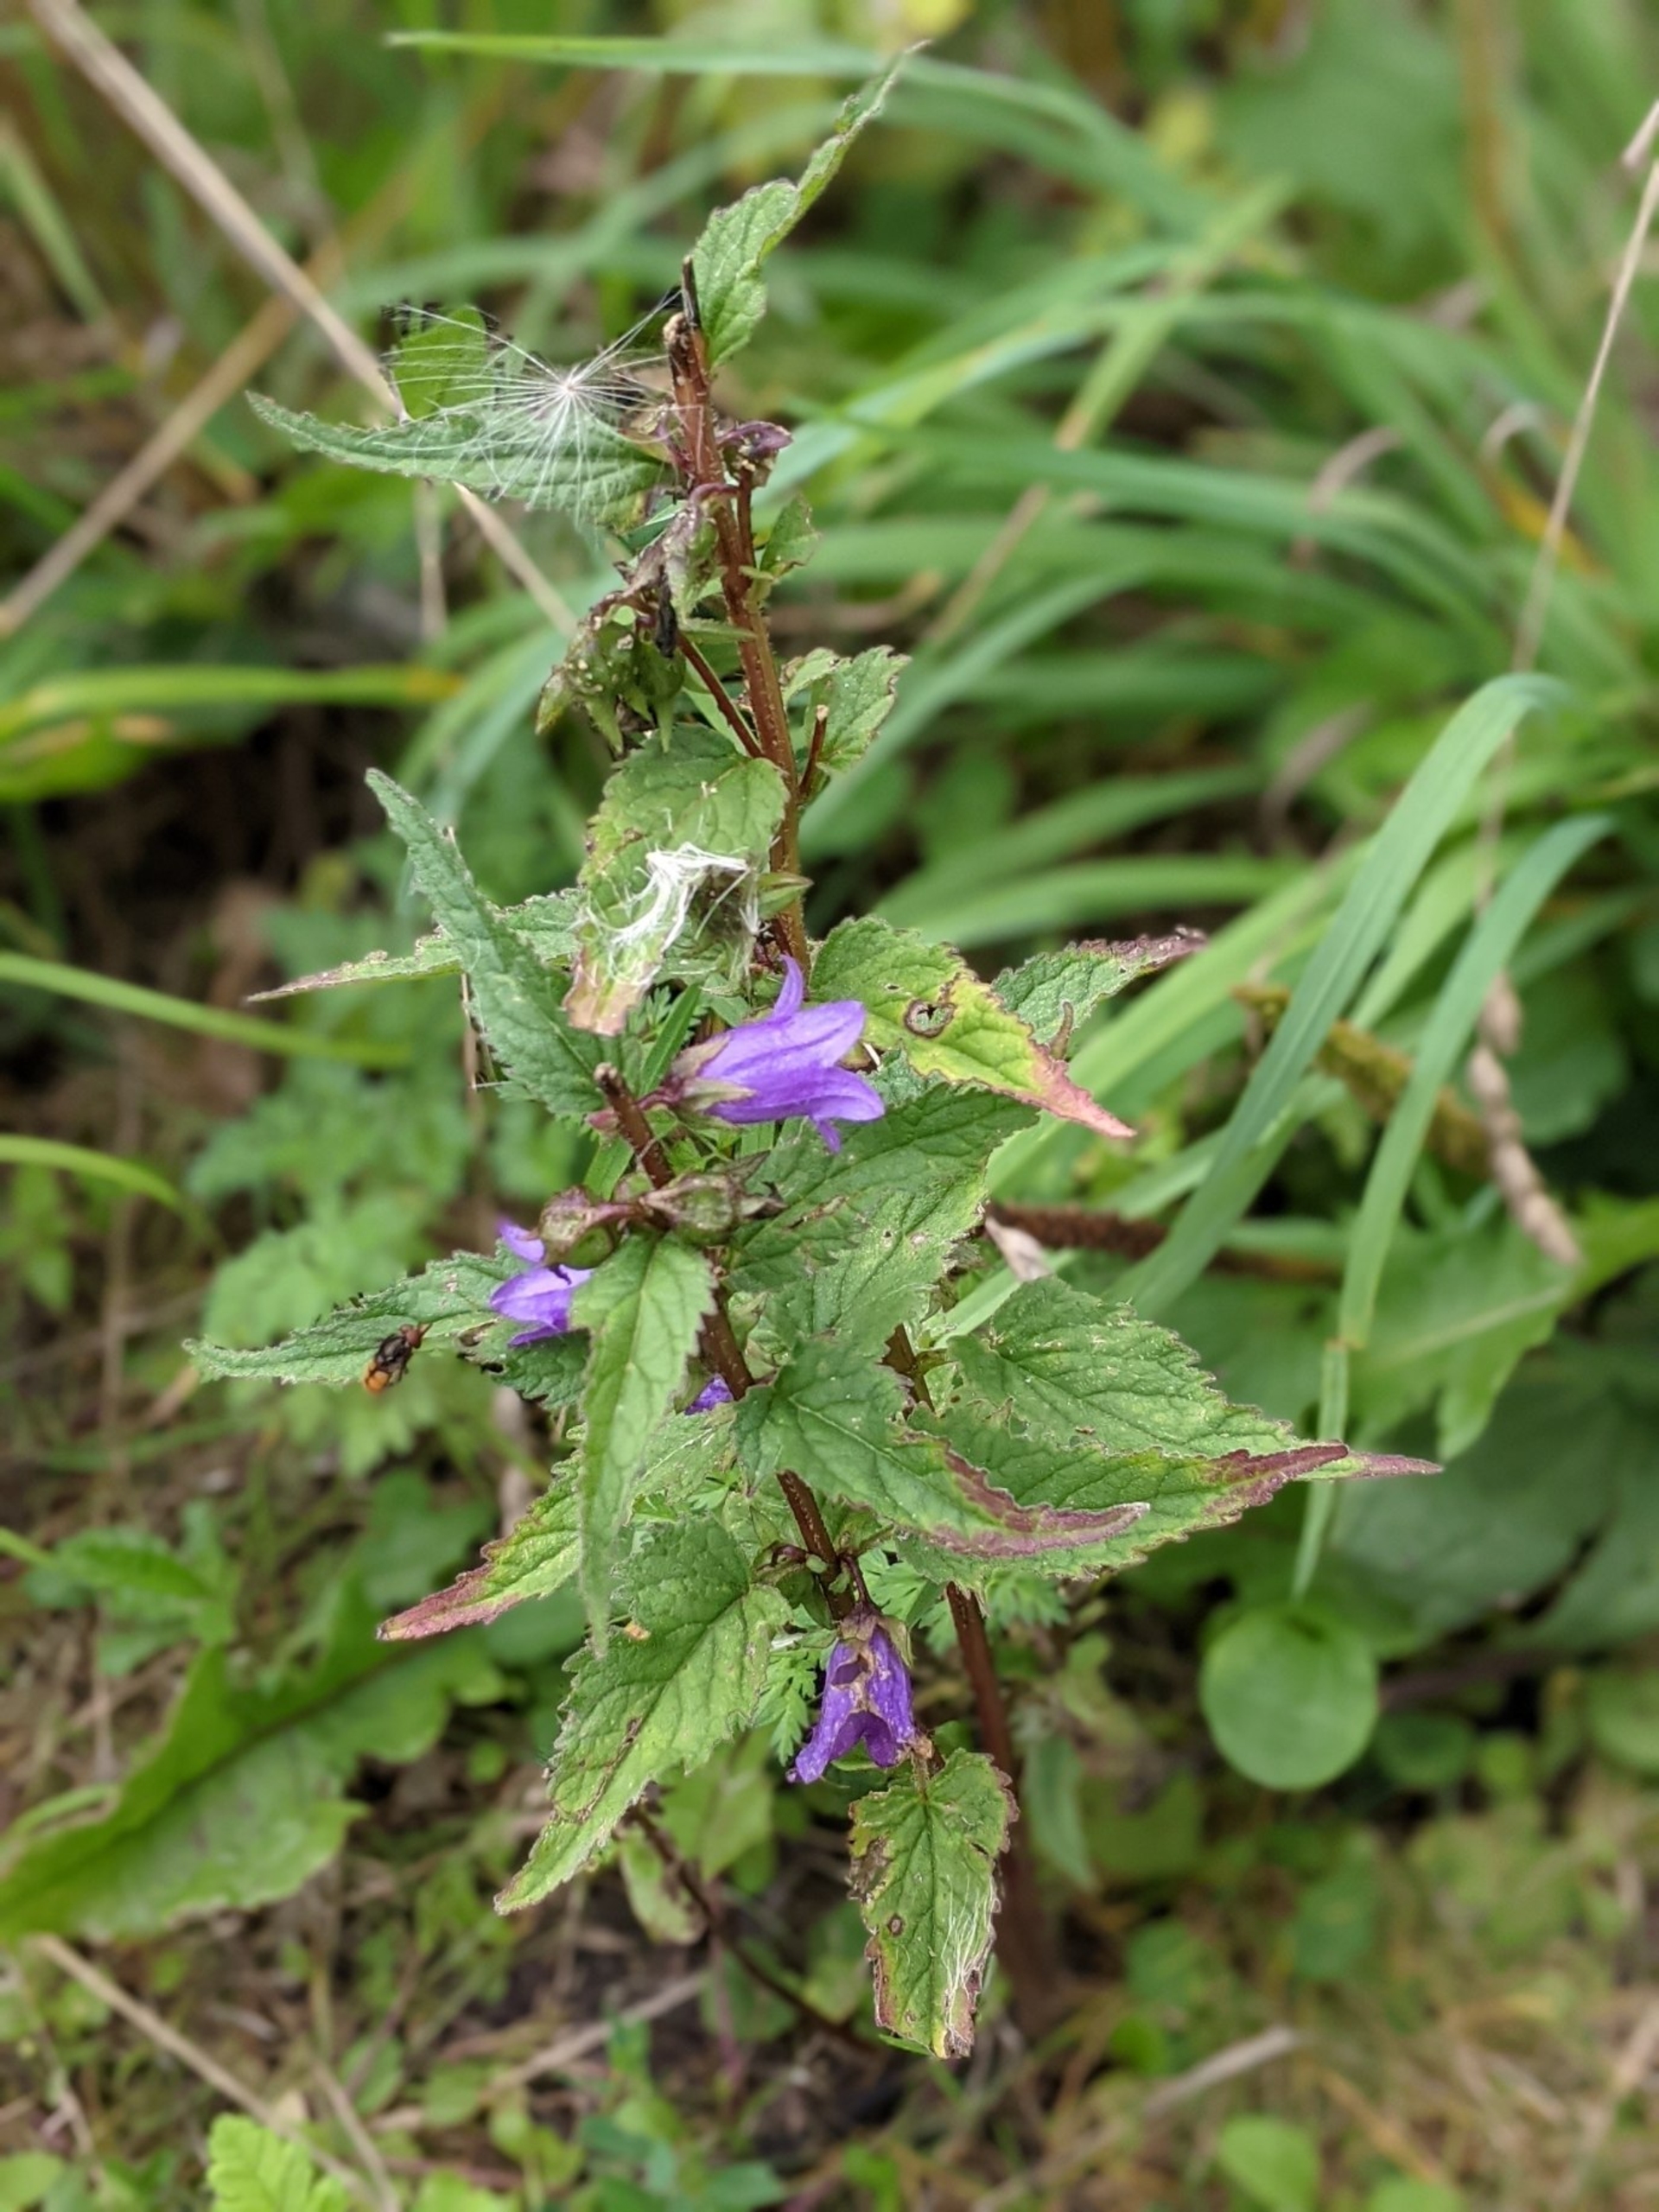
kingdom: Plantae
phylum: Tracheophyta
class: Magnoliopsida
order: Asterales
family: Campanulaceae
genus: Campanula
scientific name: Campanula trachelium
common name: Nælde-klokke
